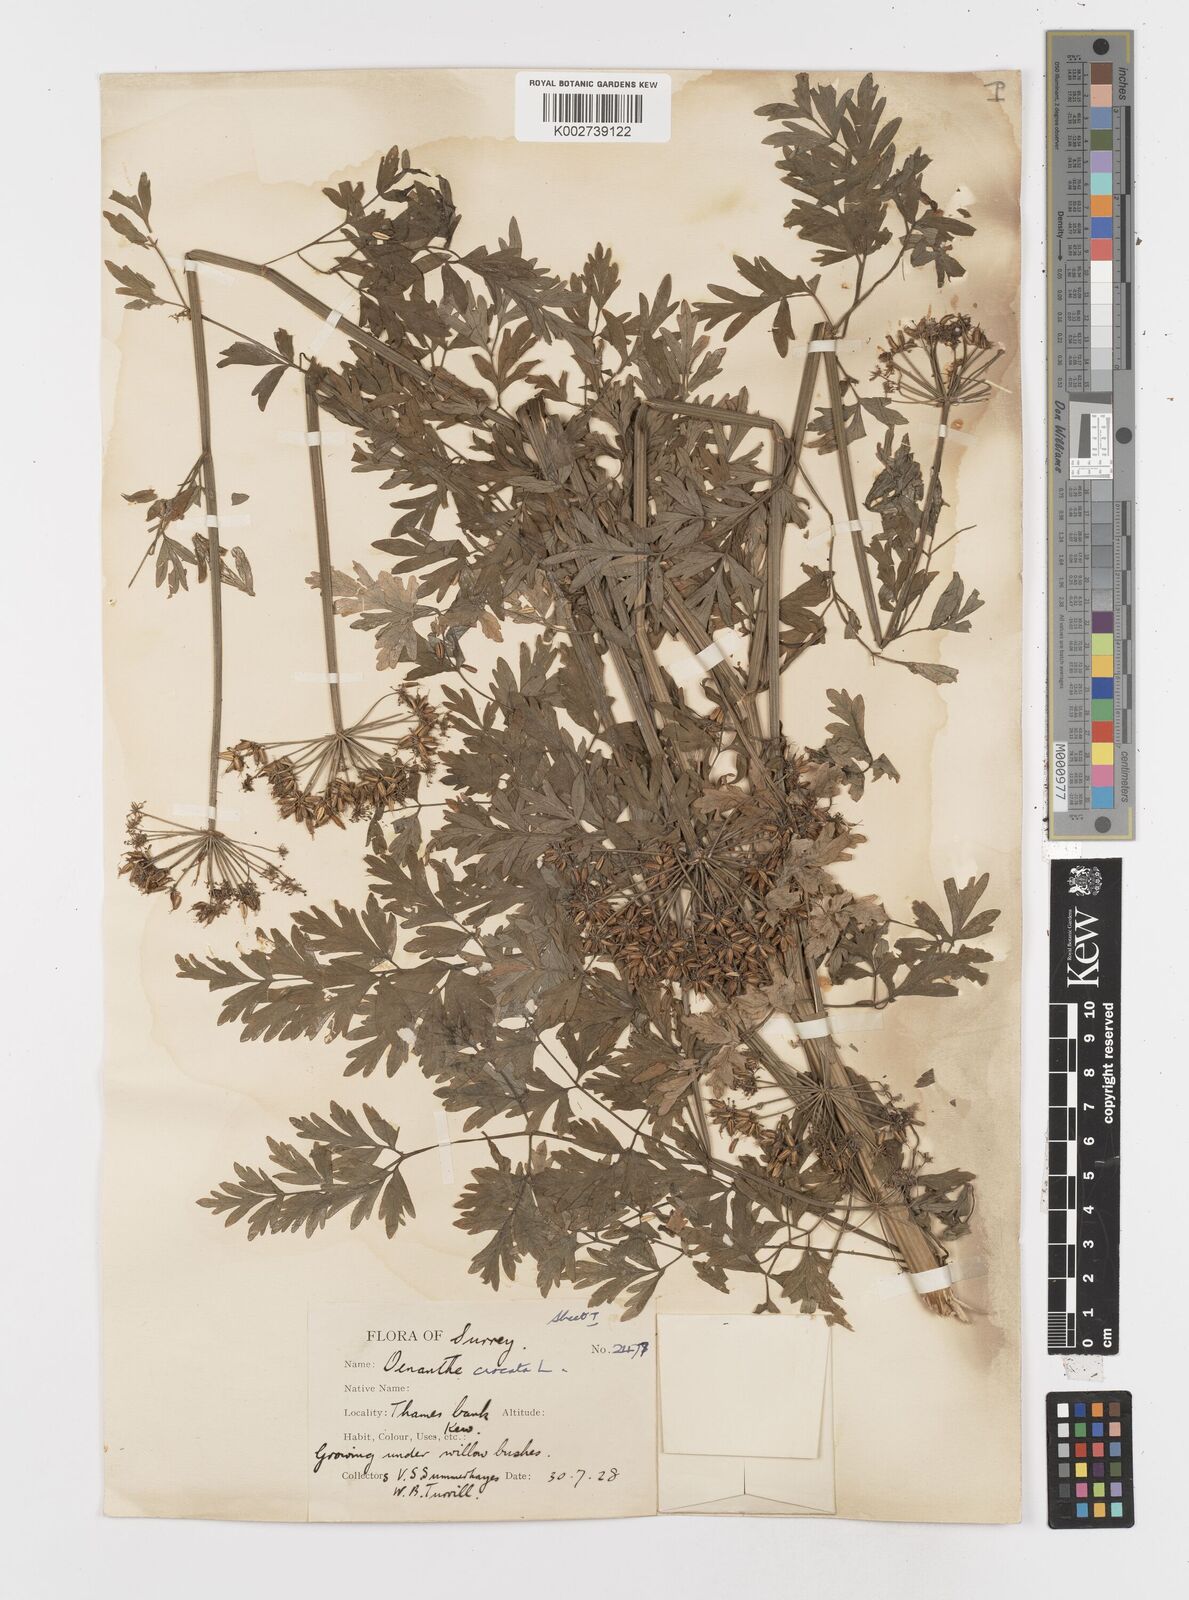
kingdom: Plantae
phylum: Tracheophyta
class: Magnoliopsida
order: Apiales
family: Apiaceae
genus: Oenanthe
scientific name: Oenanthe crocata
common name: Hemlock water-dropwort
